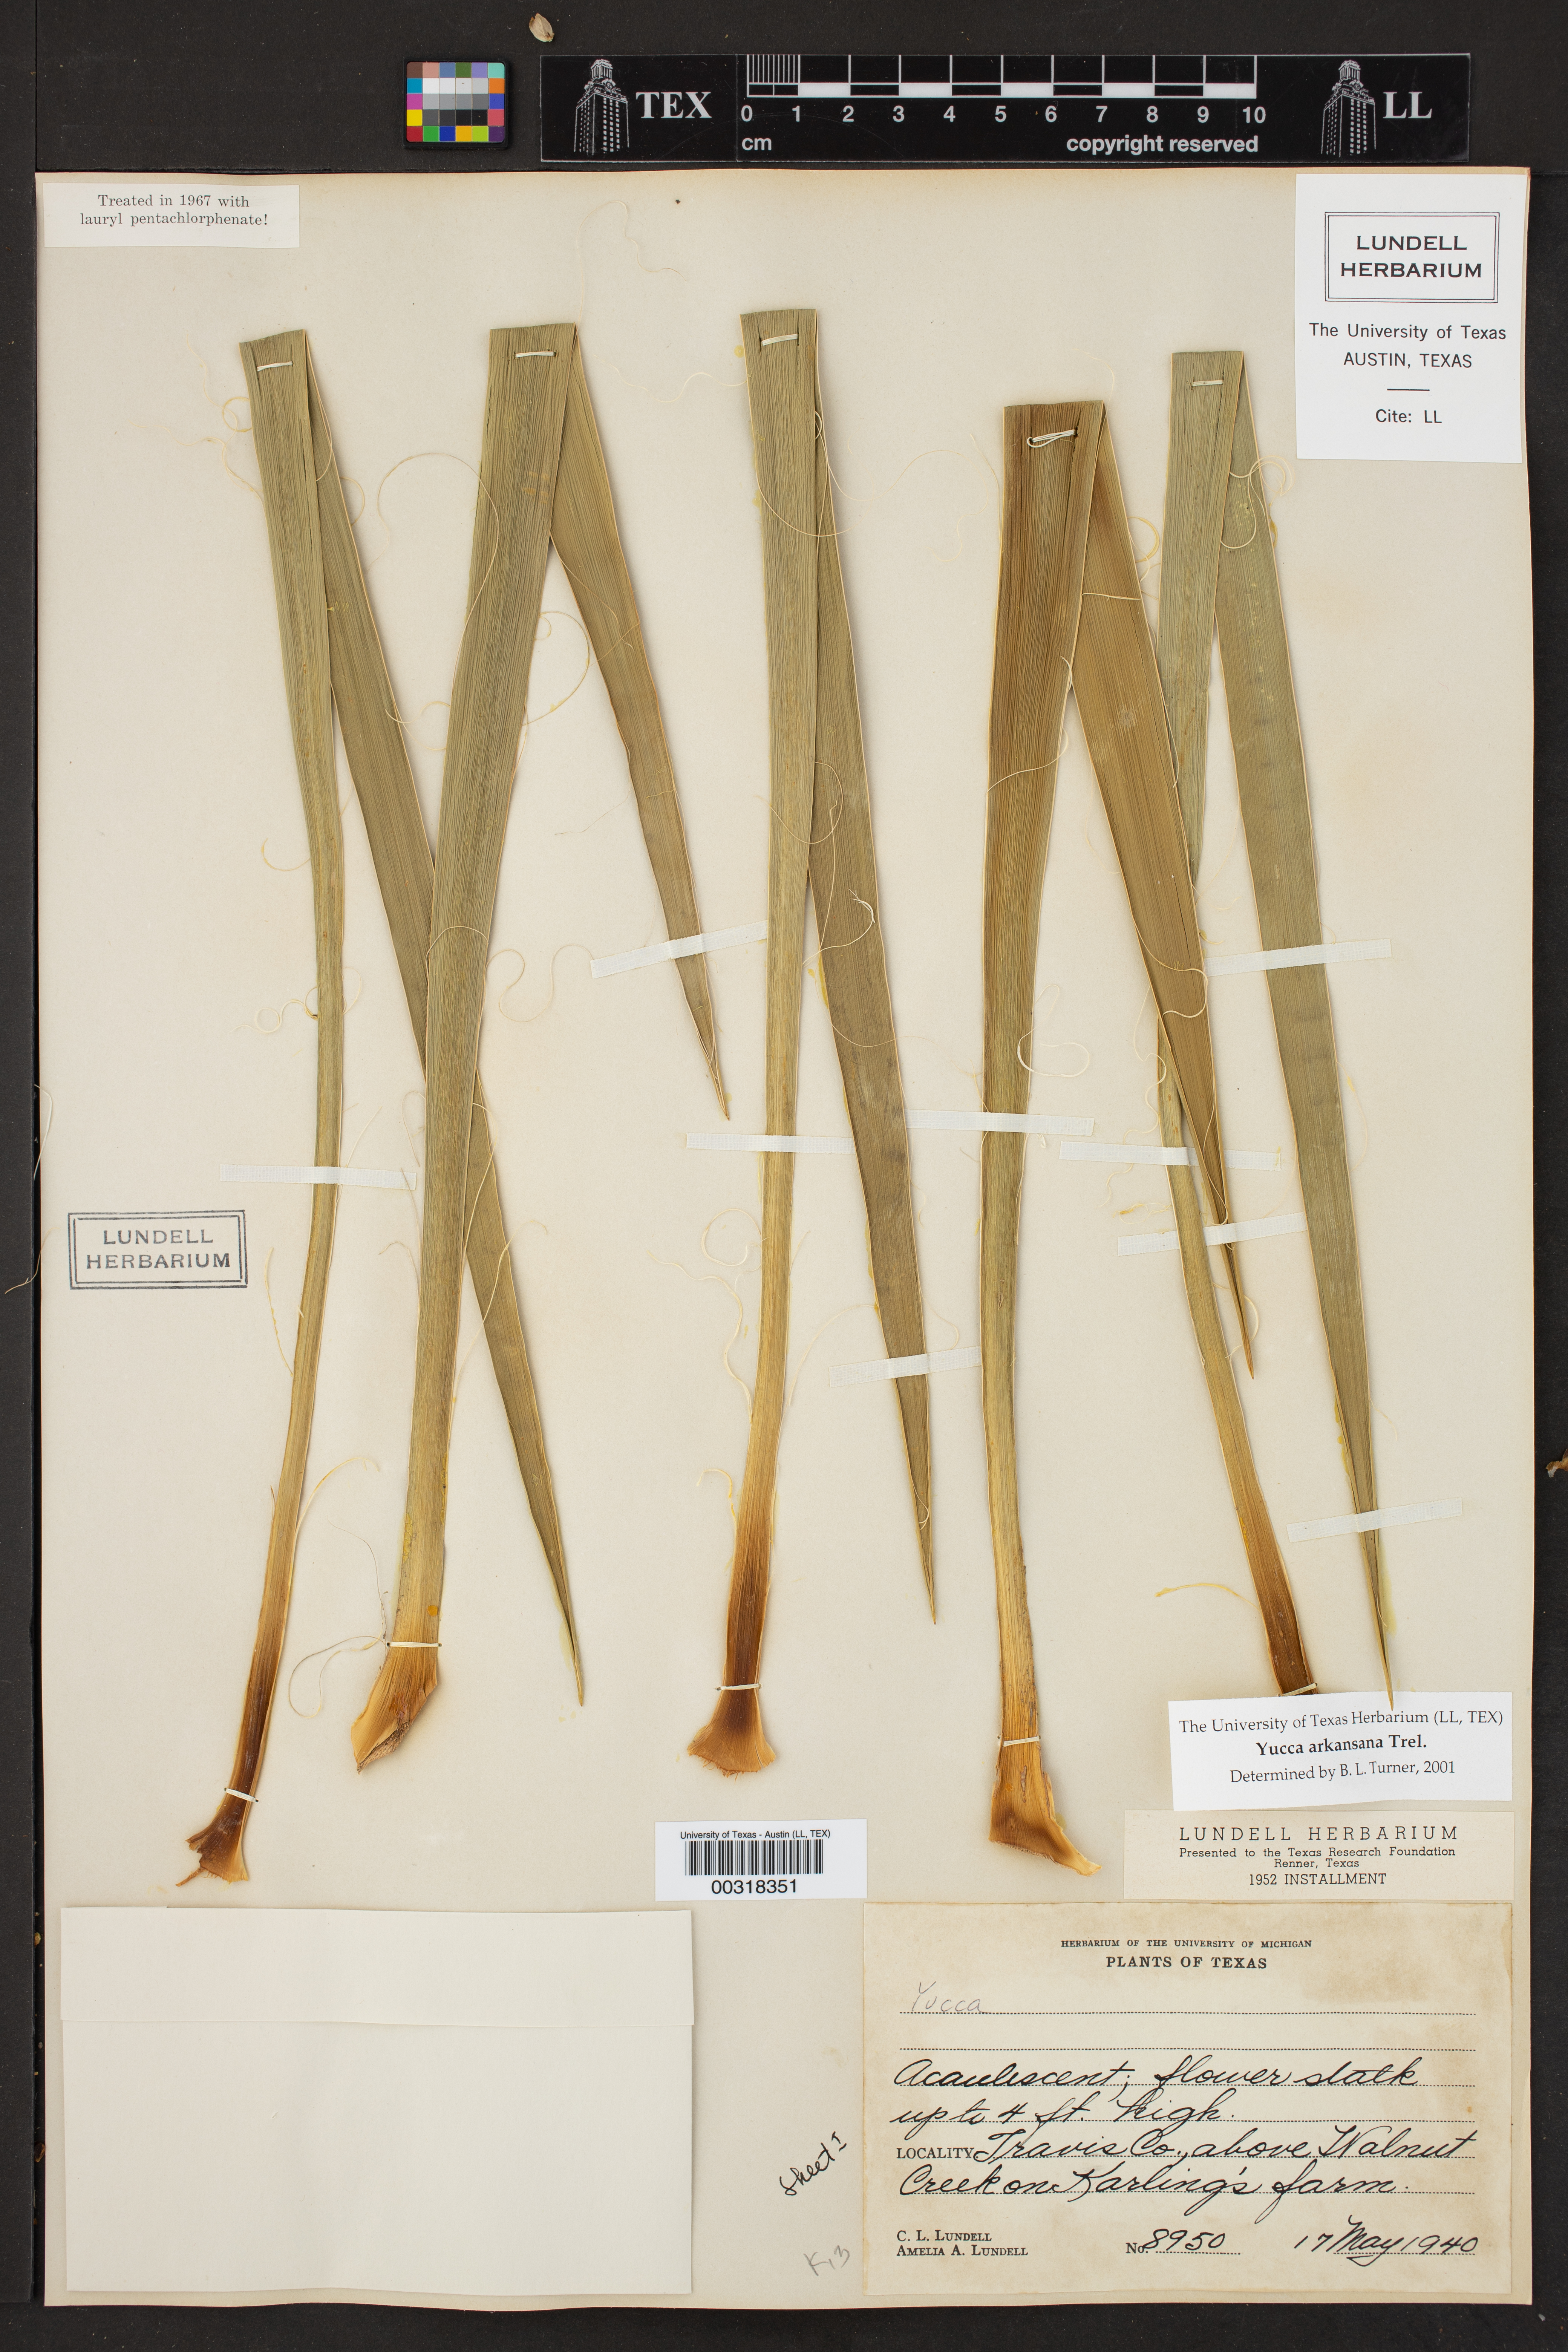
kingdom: Plantae
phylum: Tracheophyta
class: Liliopsida
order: Asparagales
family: Asparagaceae
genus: Yucca
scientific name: Yucca arkansana
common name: Arkansas yucca
